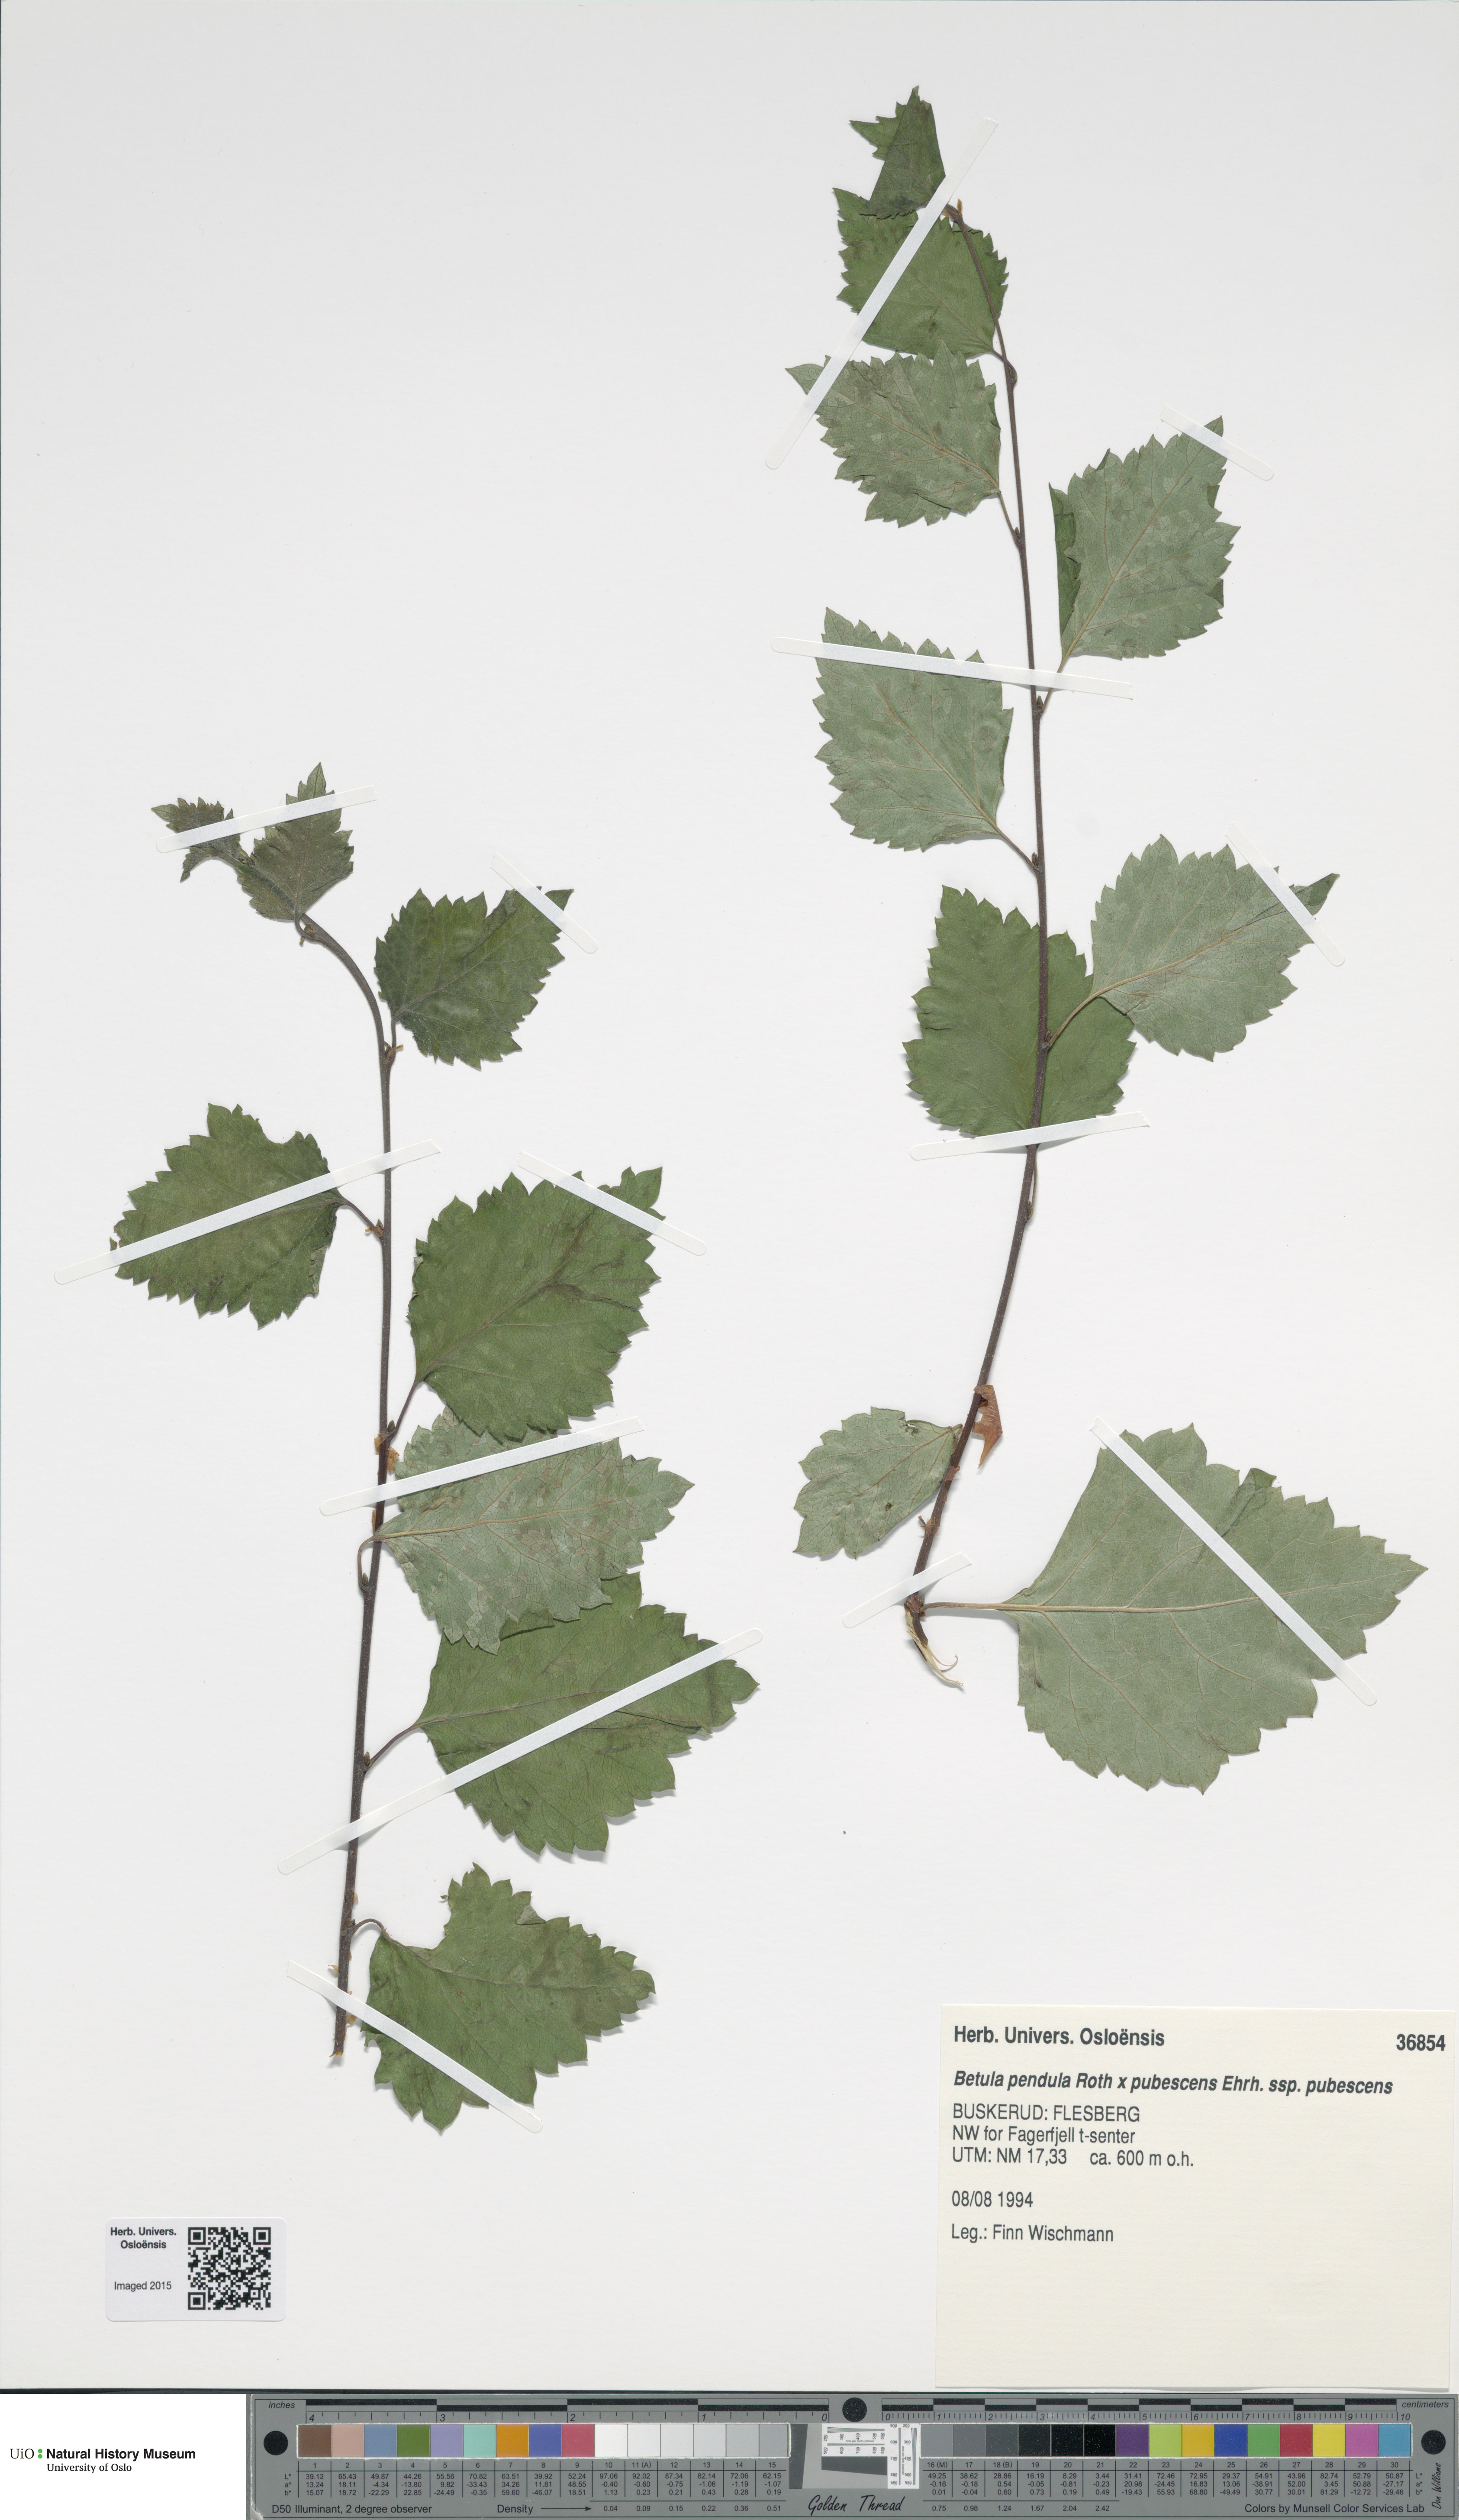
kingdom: Plantae
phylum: Tracheophyta
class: Magnoliopsida
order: Fagales
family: Betulaceae
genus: Betula
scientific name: Betula
